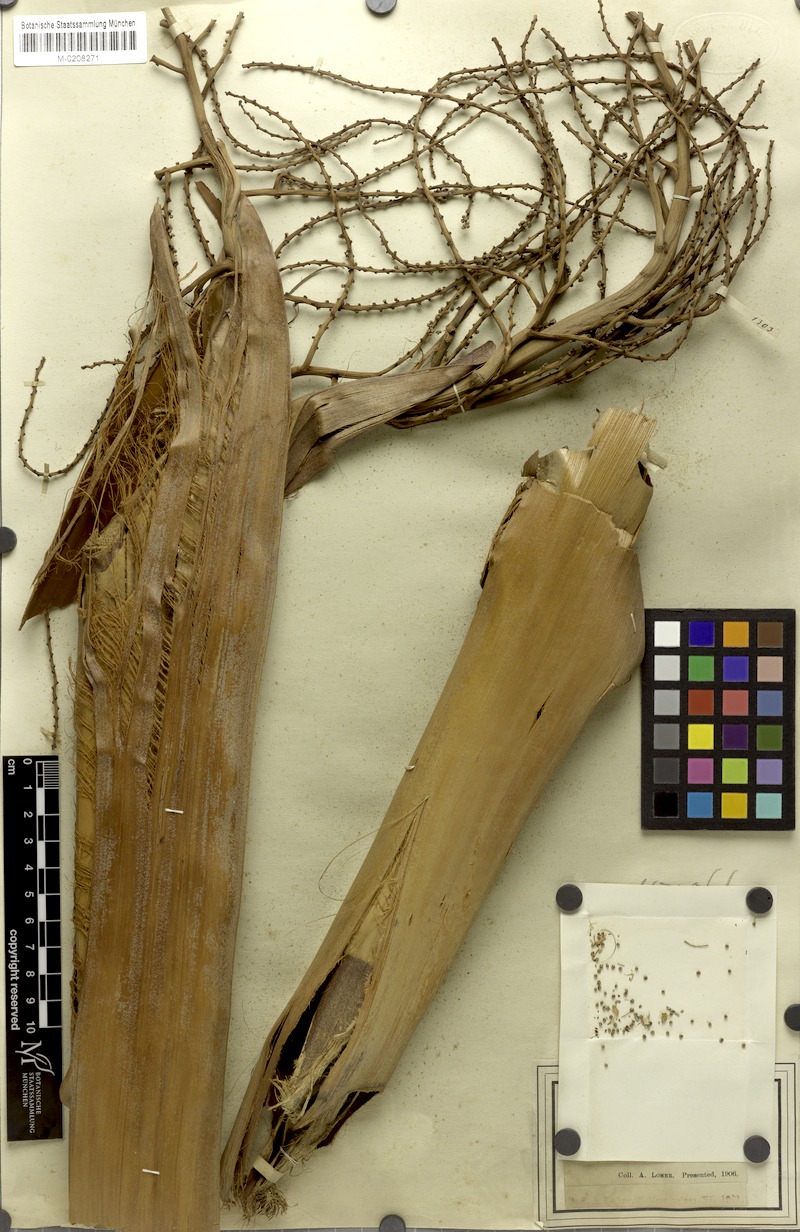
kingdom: Plantae
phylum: Tracheophyta
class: Liliopsida
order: Arecales
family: Arecaceae
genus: Livistona
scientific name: Livistona
